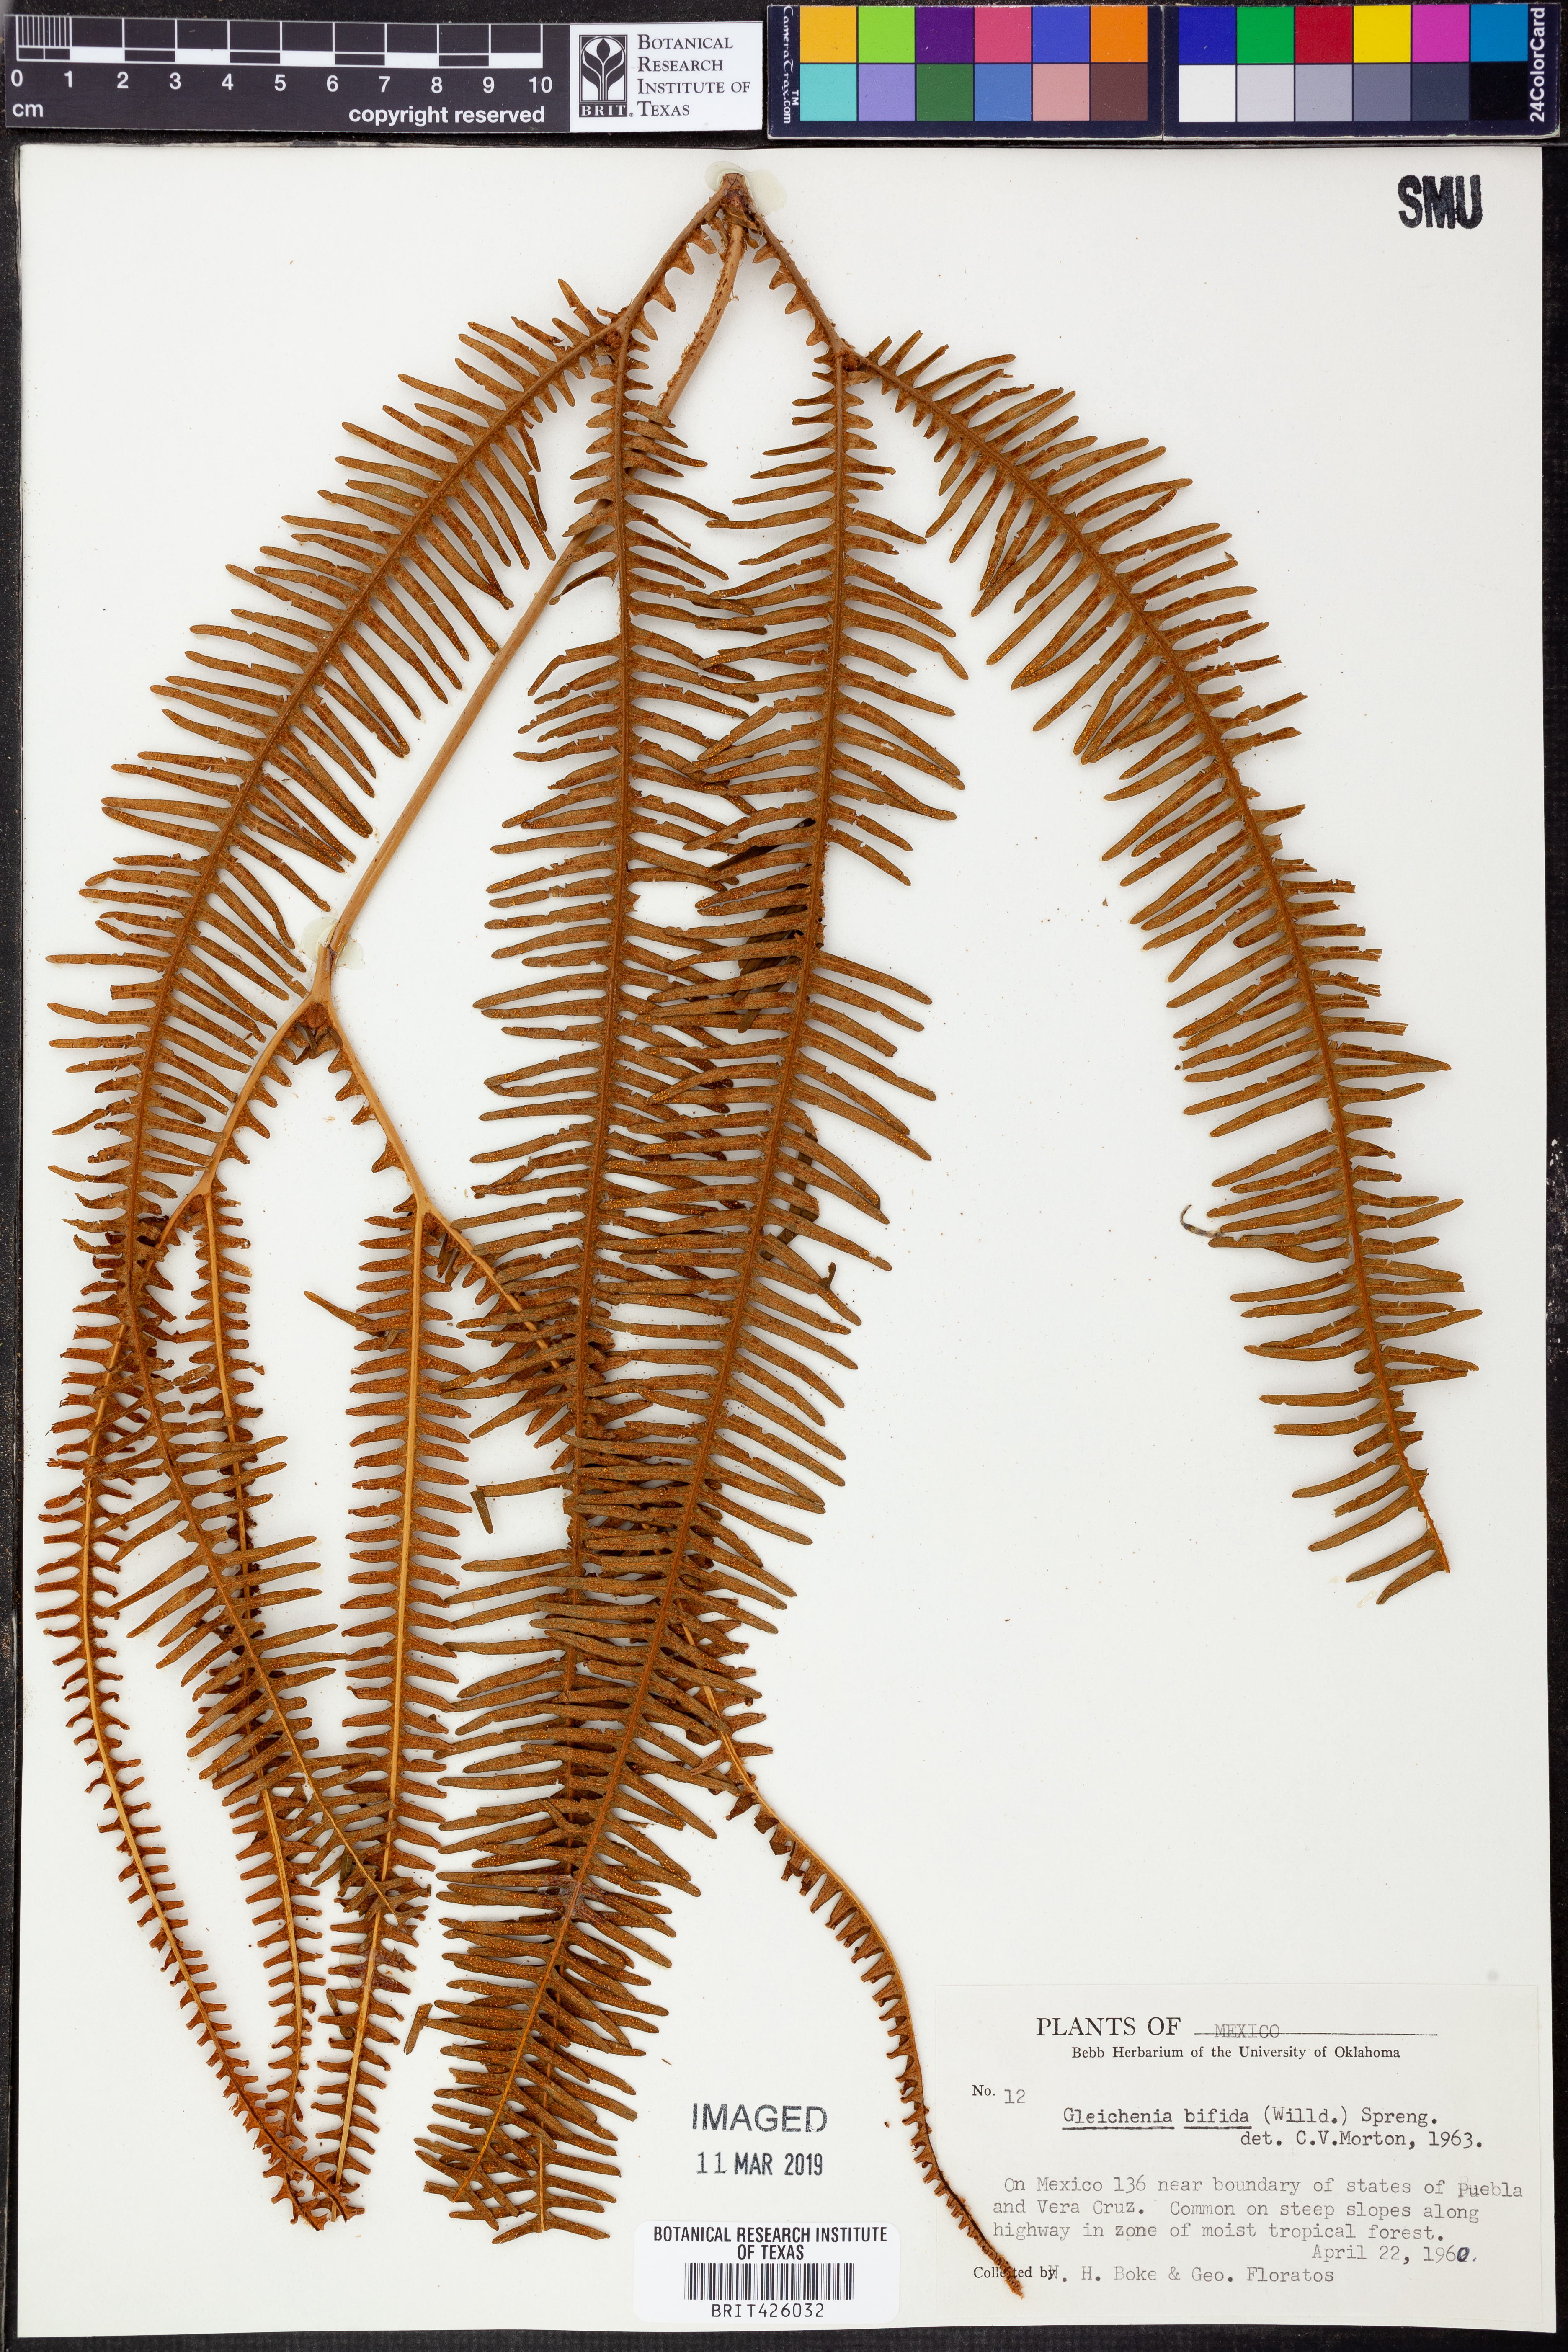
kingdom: Plantae
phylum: Tracheophyta
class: Polypodiopsida
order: Gleicheniales
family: Gleicheniaceae
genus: Sticherus
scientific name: Sticherus bifidus
